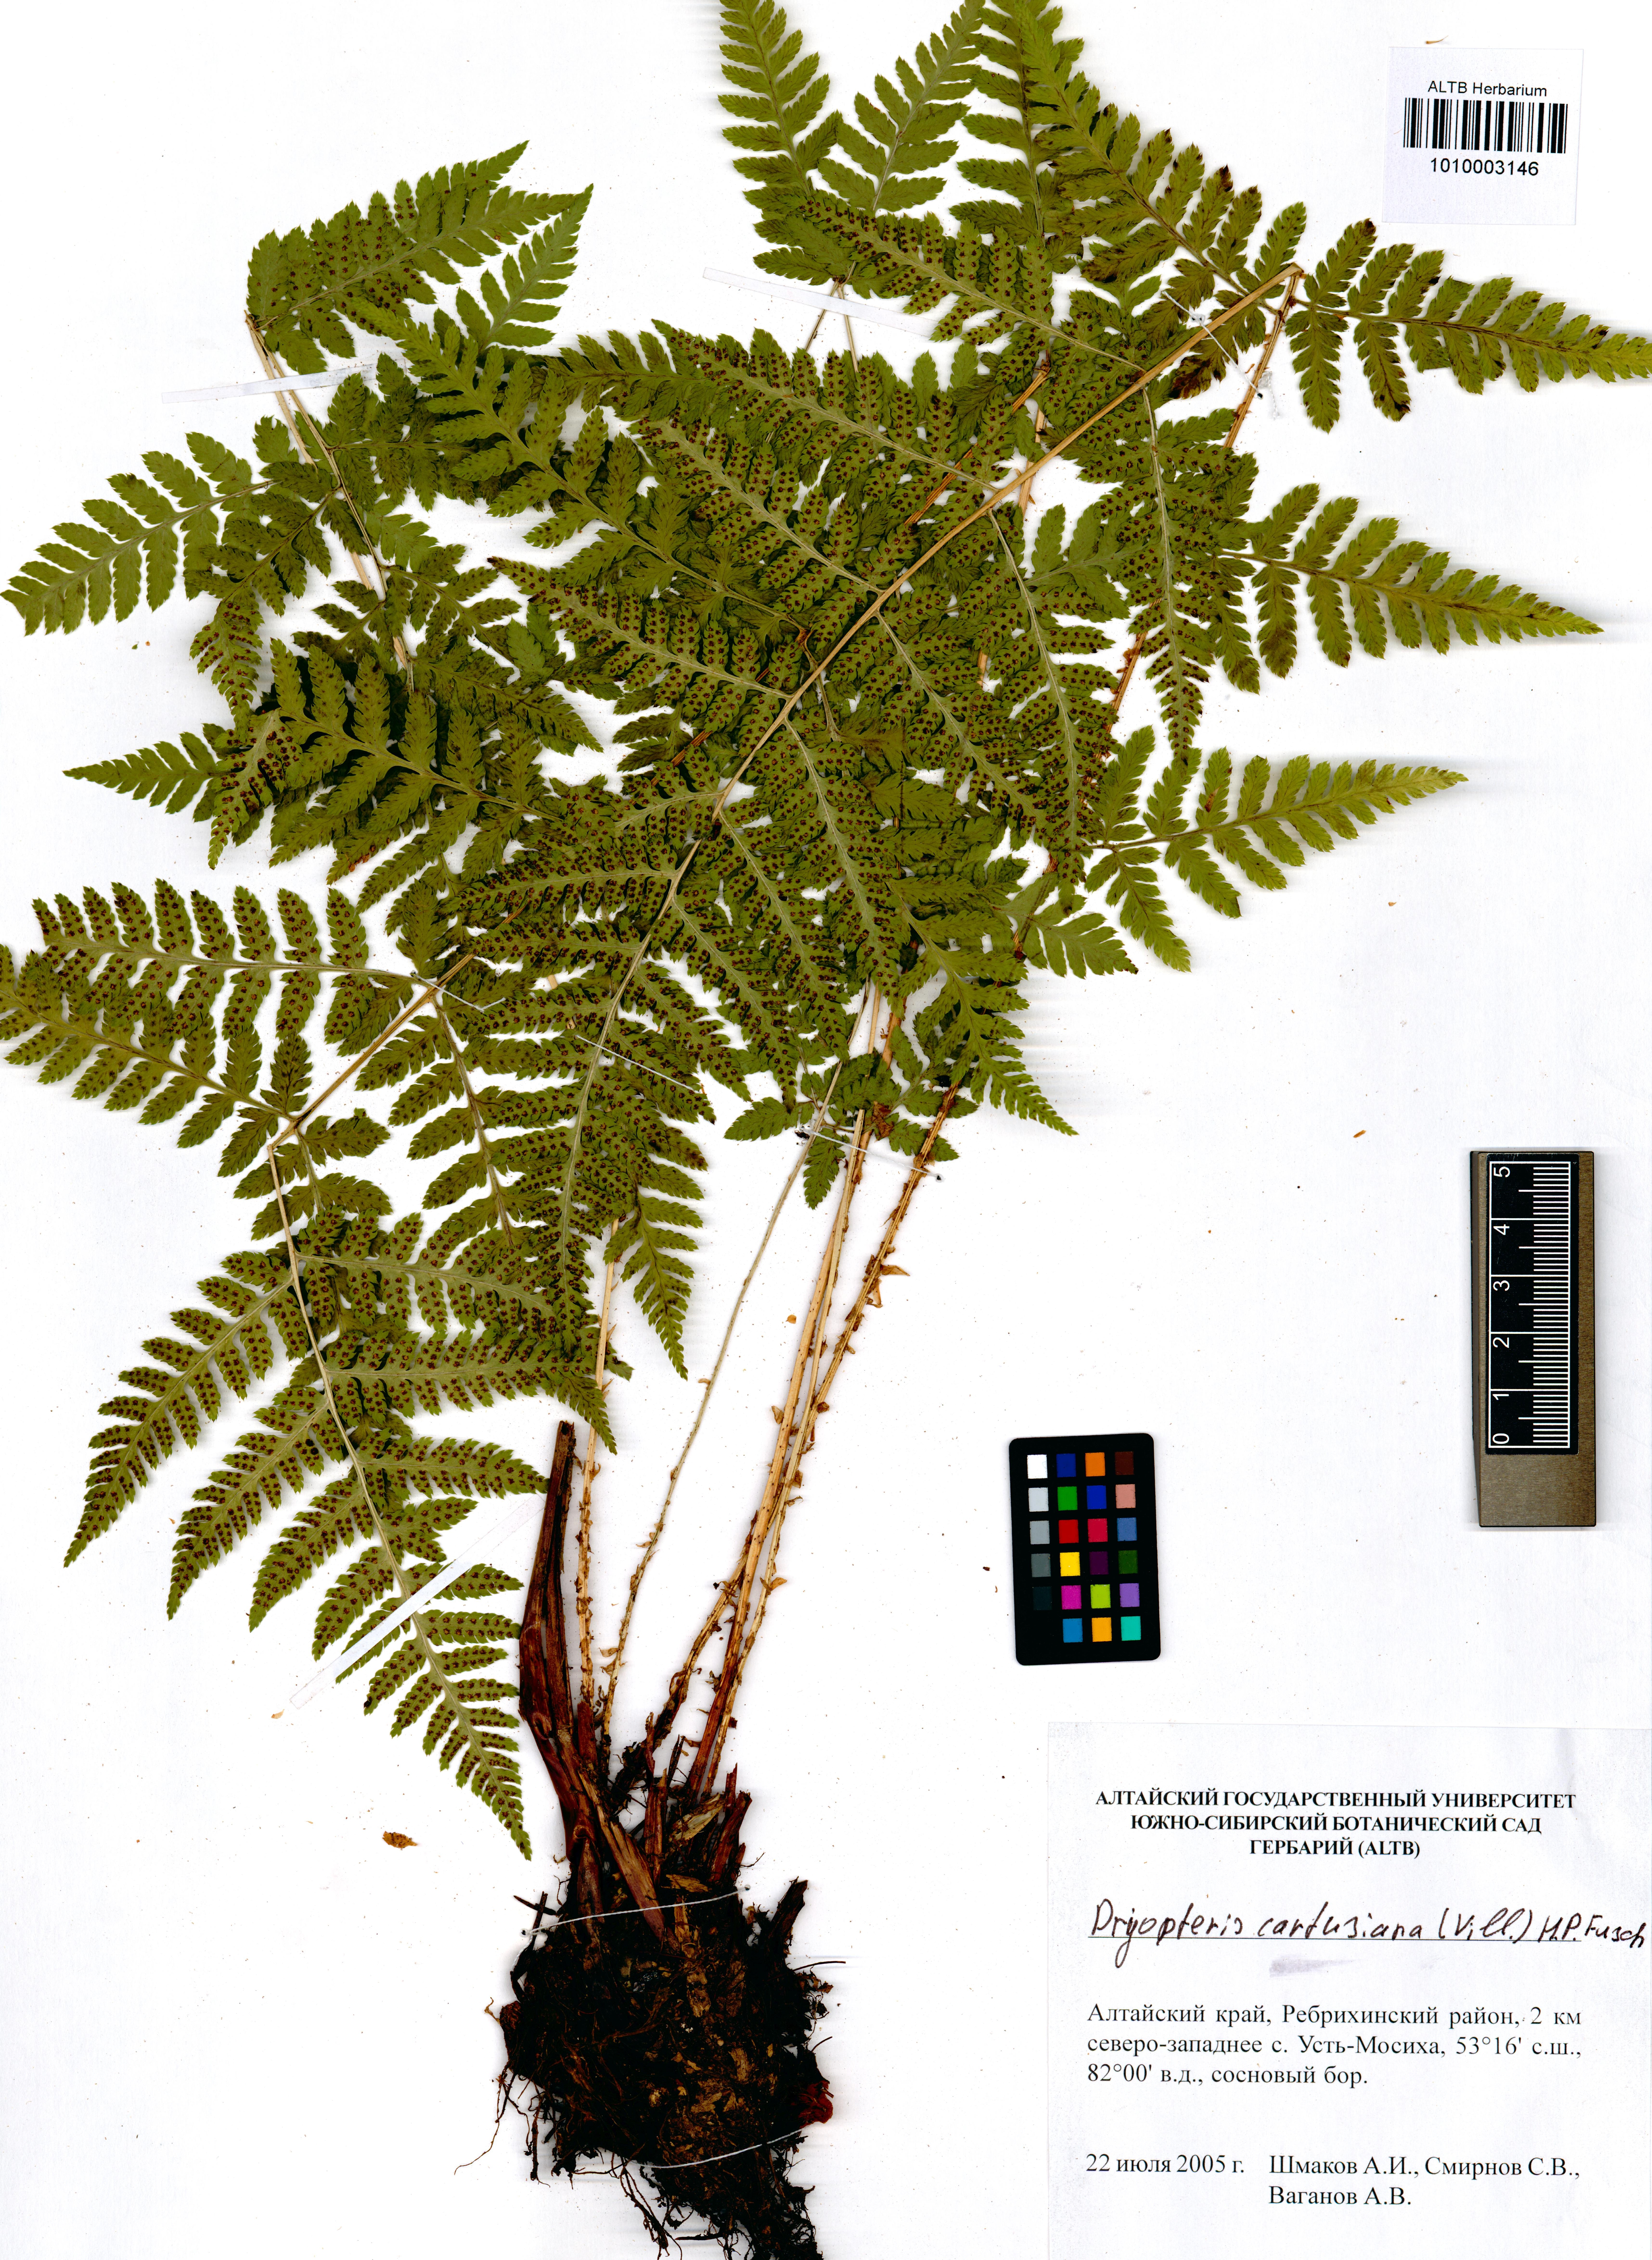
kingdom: Plantae
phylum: Tracheophyta
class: Polypodiopsida
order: Polypodiales
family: Dryopteridaceae
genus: Dryopteris
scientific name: Dryopteris carthusiana
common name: Narrow buckler-fern
